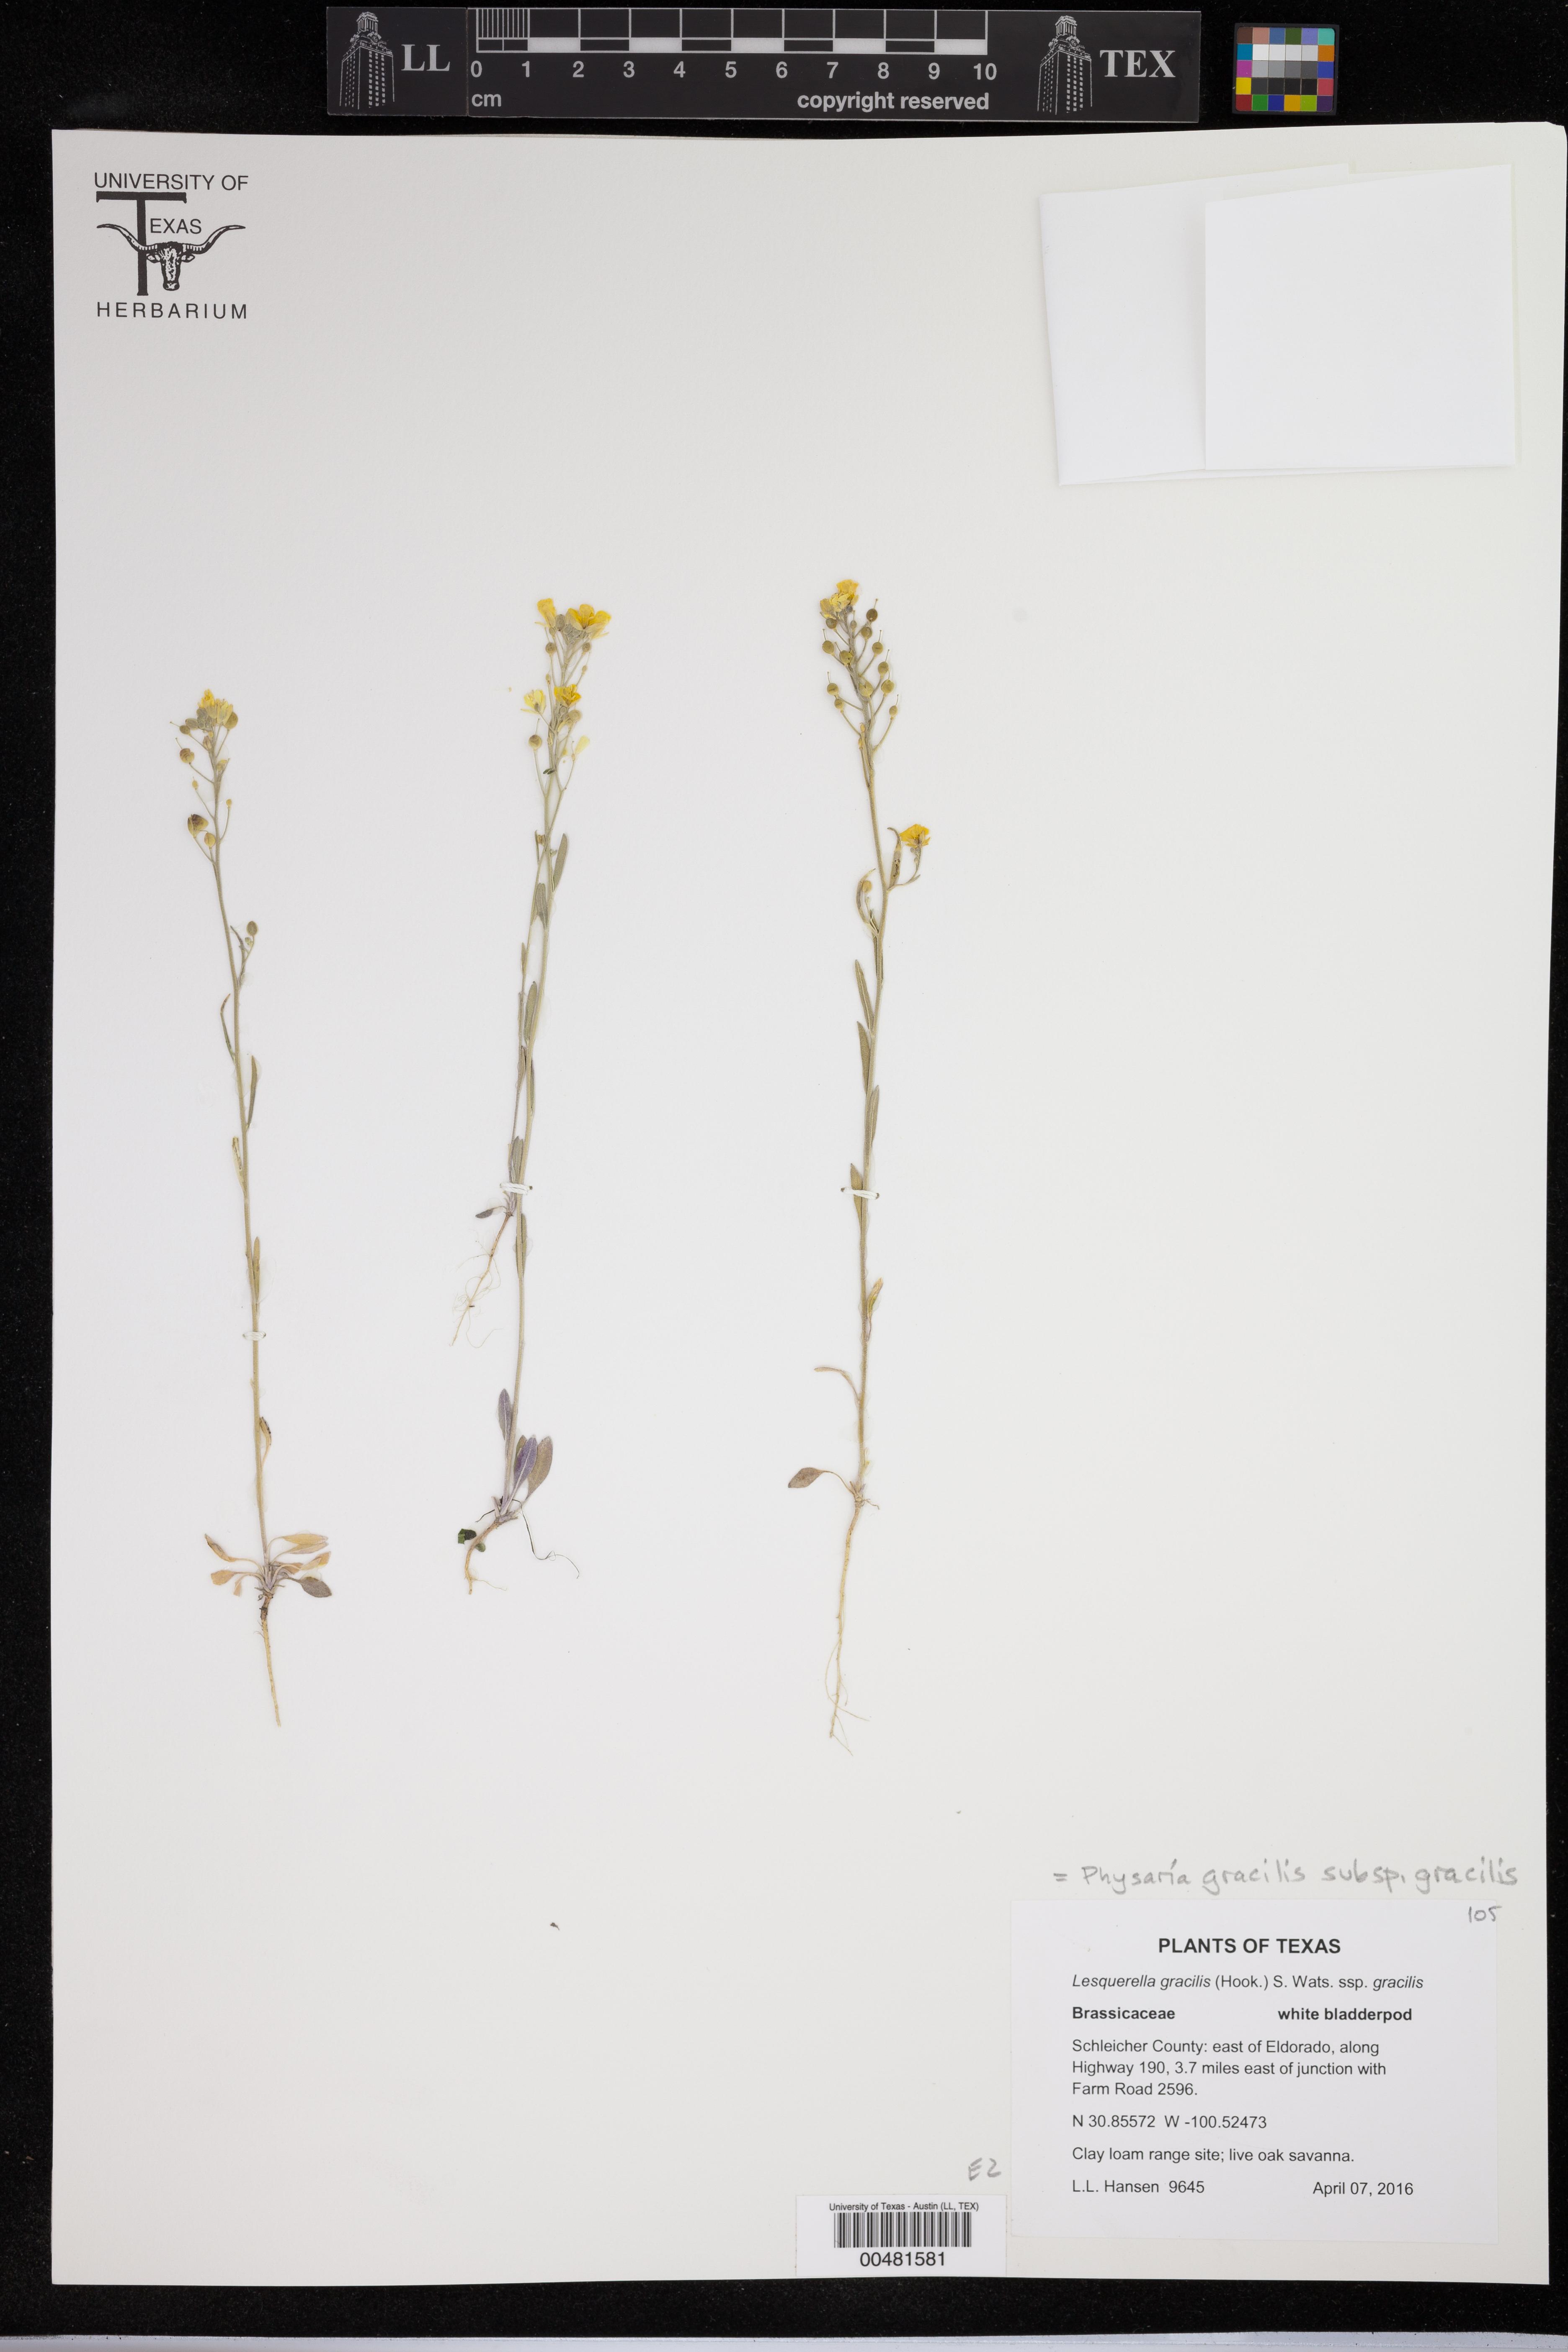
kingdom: Plantae
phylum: Tracheophyta
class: Magnoliopsida
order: Brassicales
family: Brassicaceae
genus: Physaria
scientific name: Physaria gracilis
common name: Spreading bladderpod
